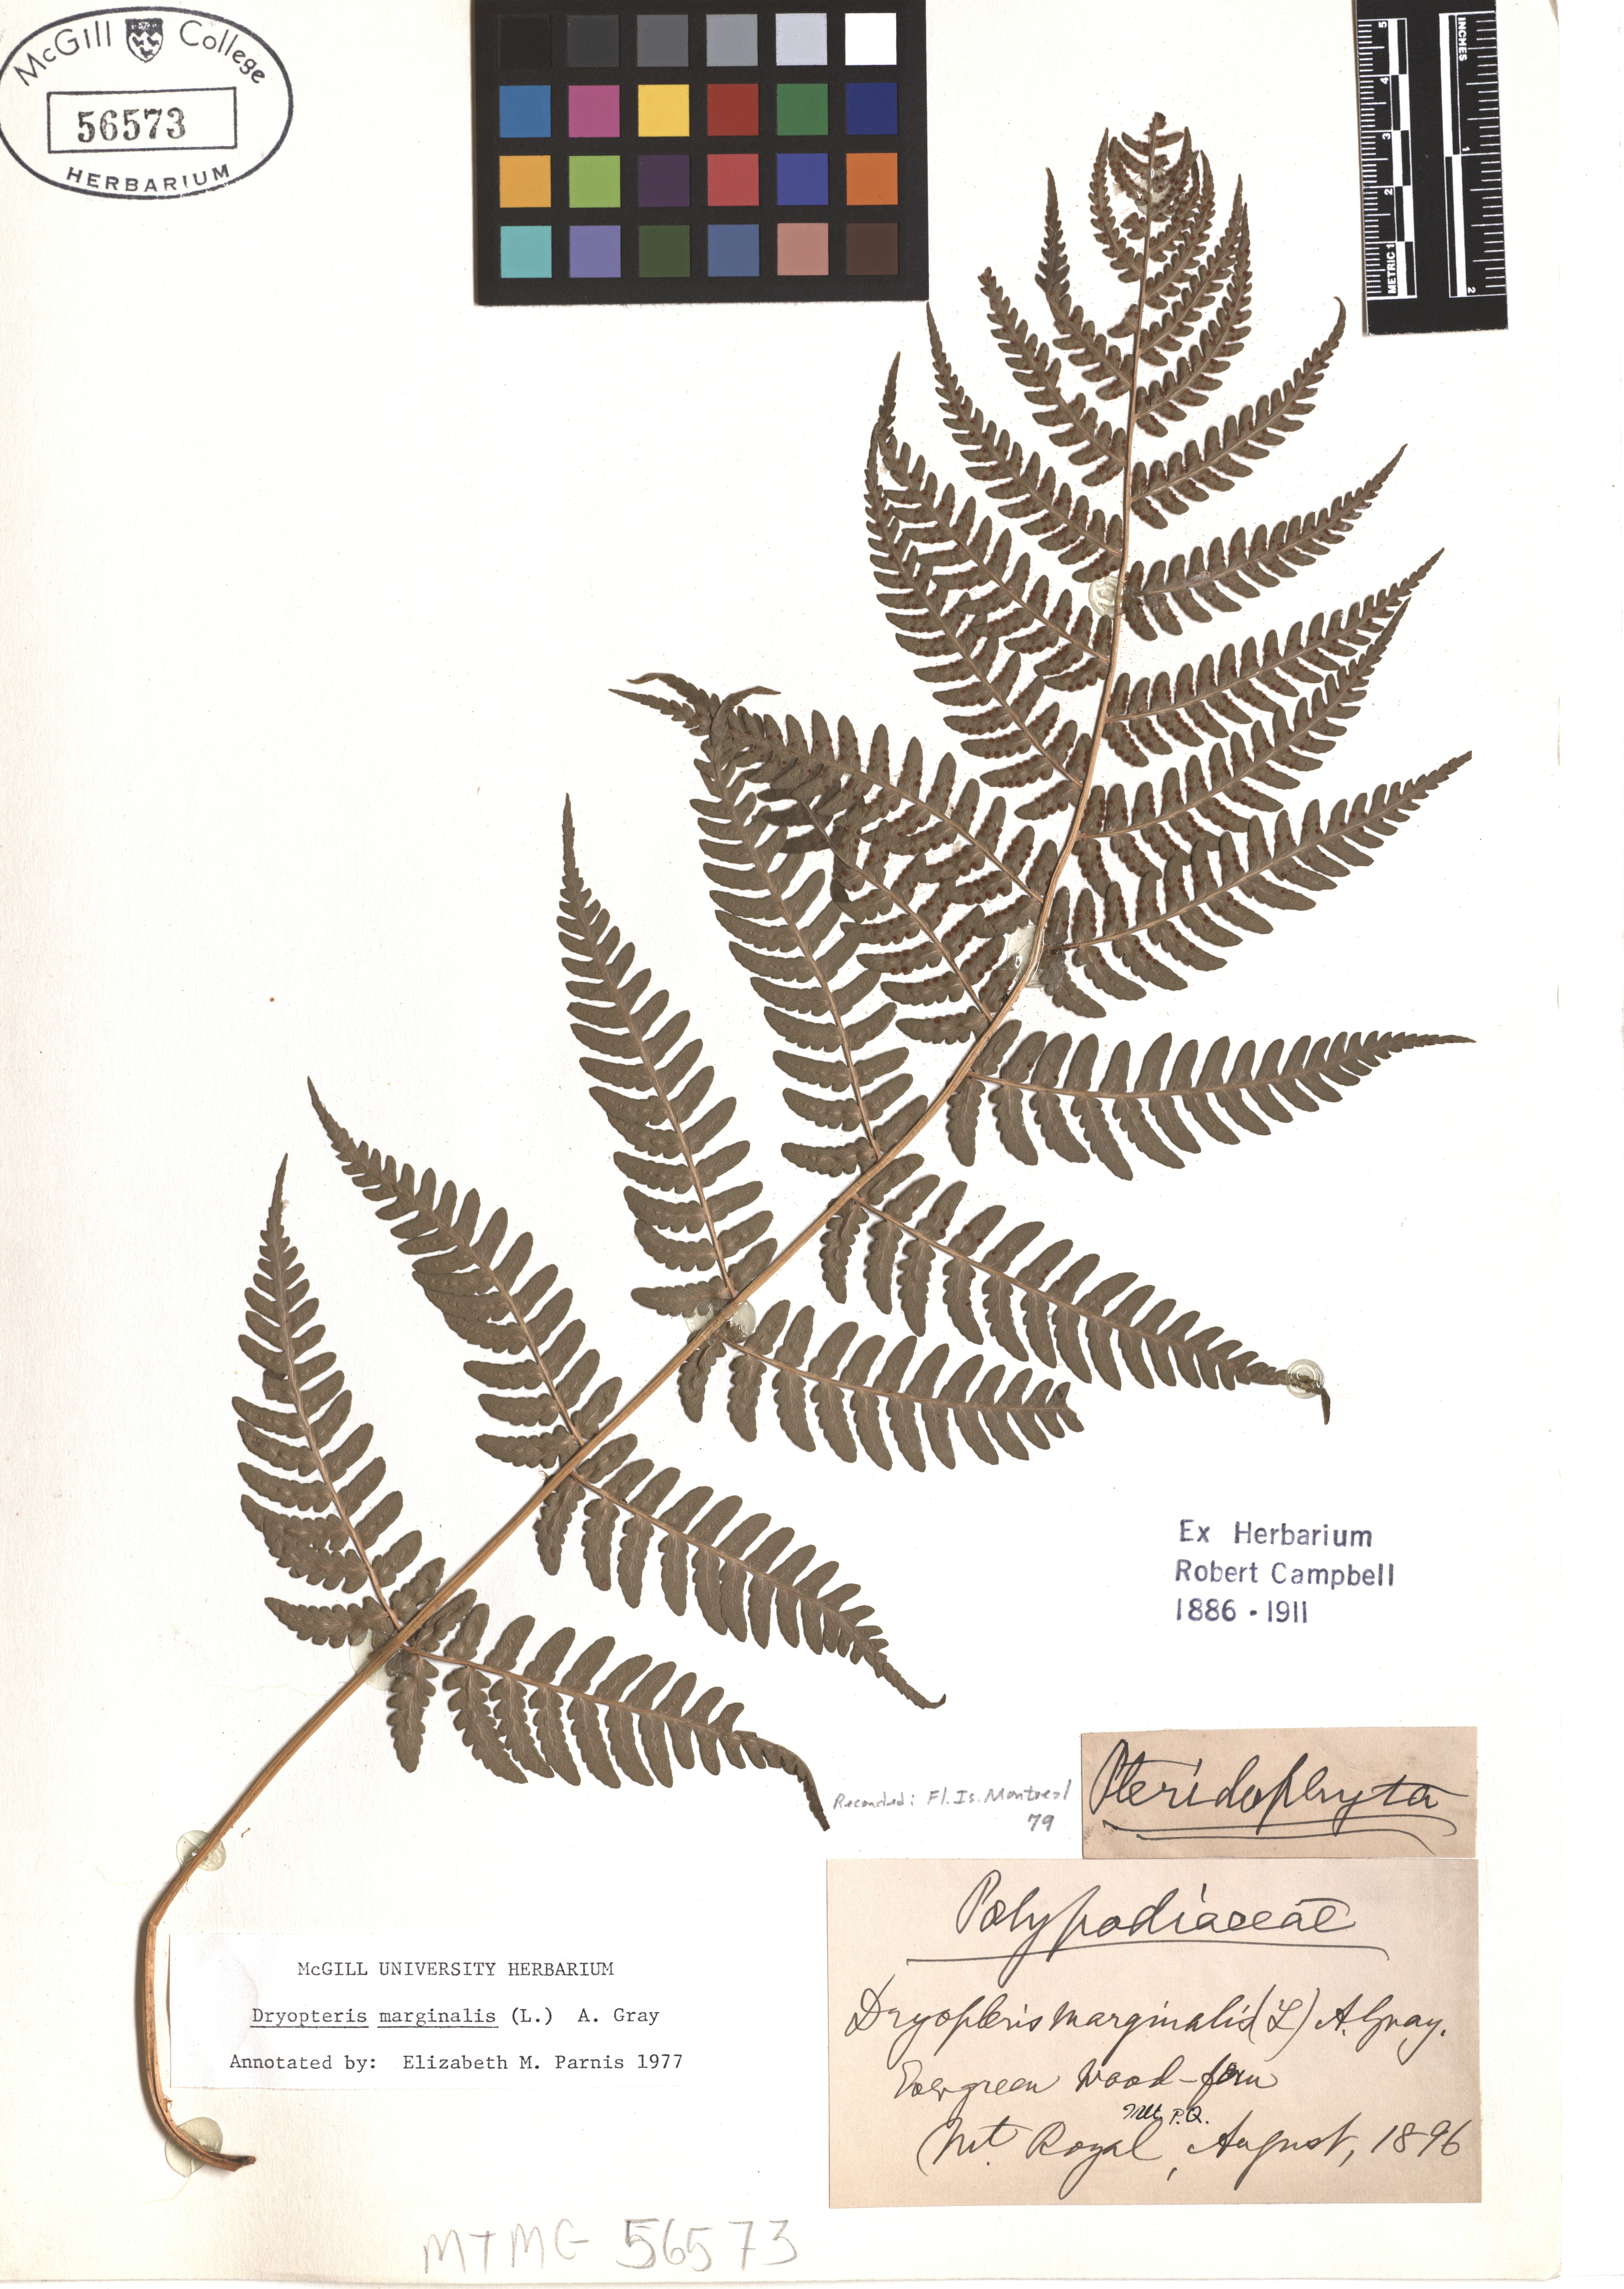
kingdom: Plantae
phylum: Tracheophyta
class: Polypodiopsida
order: Polypodiales
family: Dryopteridaceae
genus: Dryopteris
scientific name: Dryopteris marginalis
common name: Marginal wood fern
